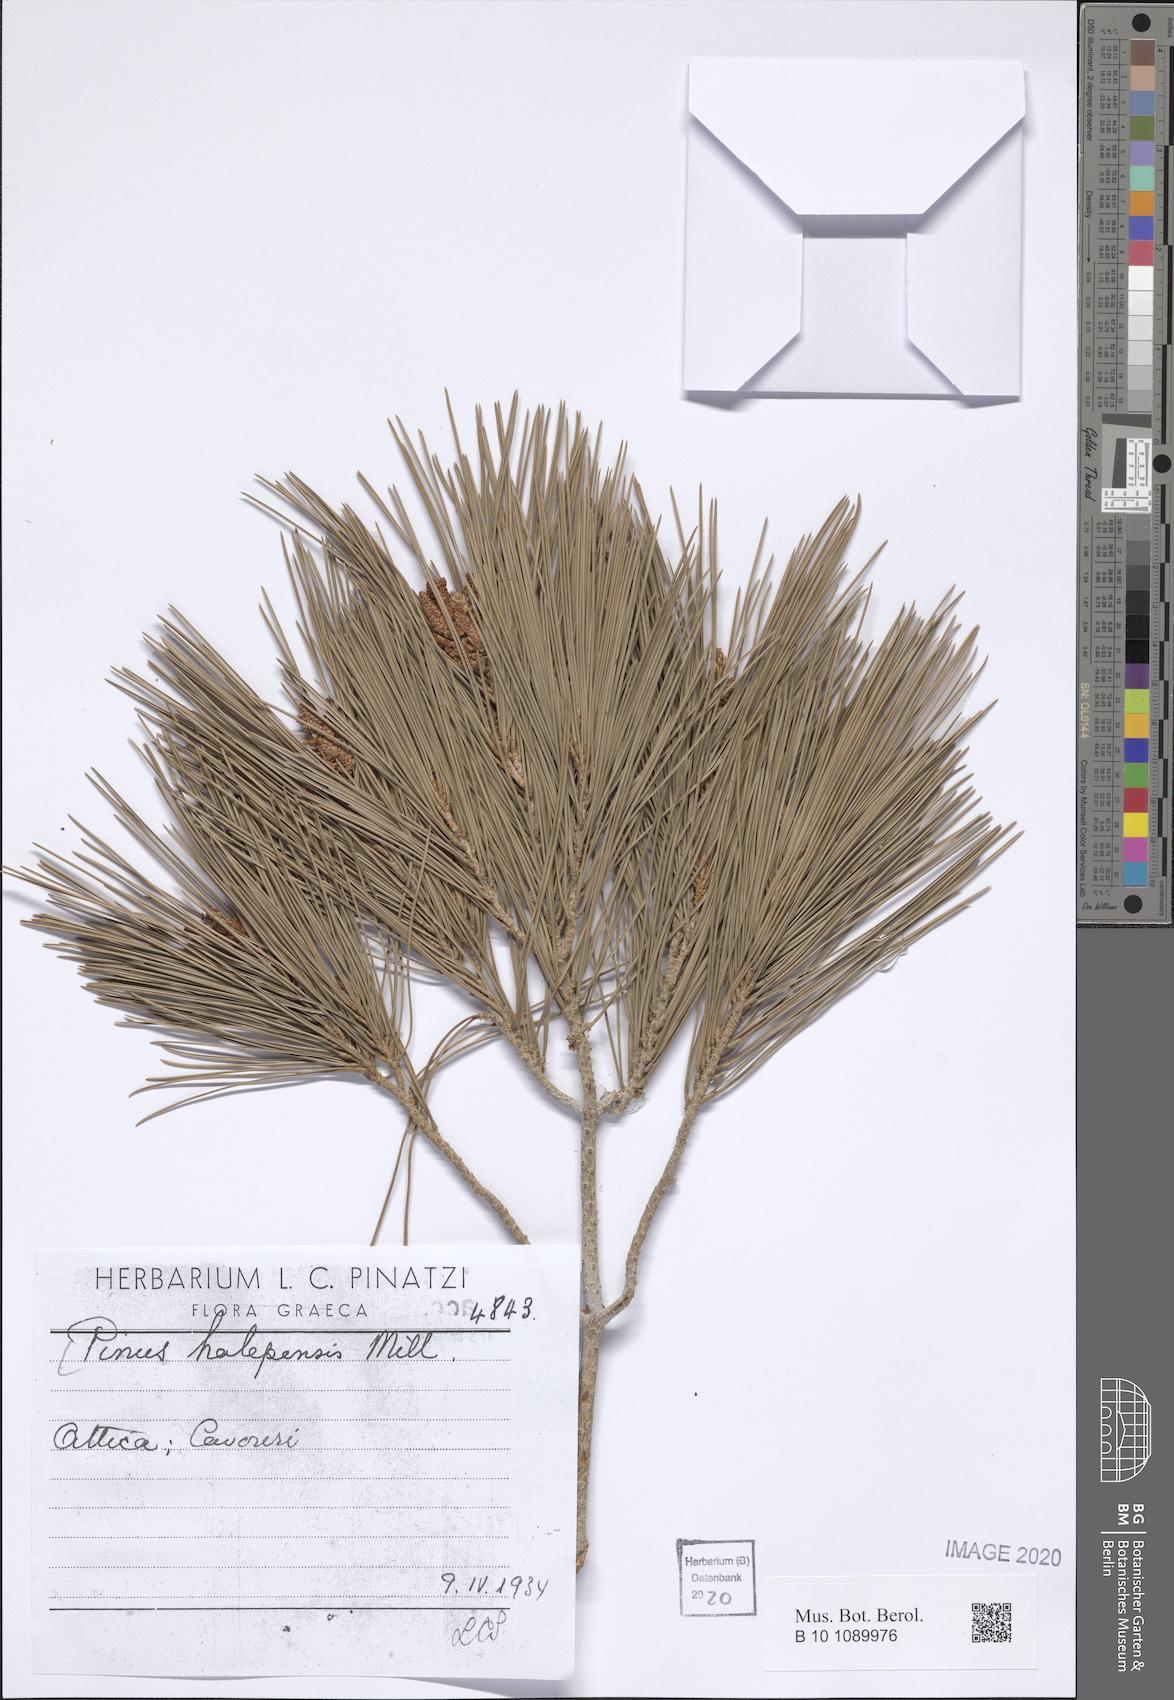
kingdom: Plantae
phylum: Tracheophyta
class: Pinopsida
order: Pinales
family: Pinaceae
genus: Pinus
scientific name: Pinus halepensis
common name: Aleppo pine
